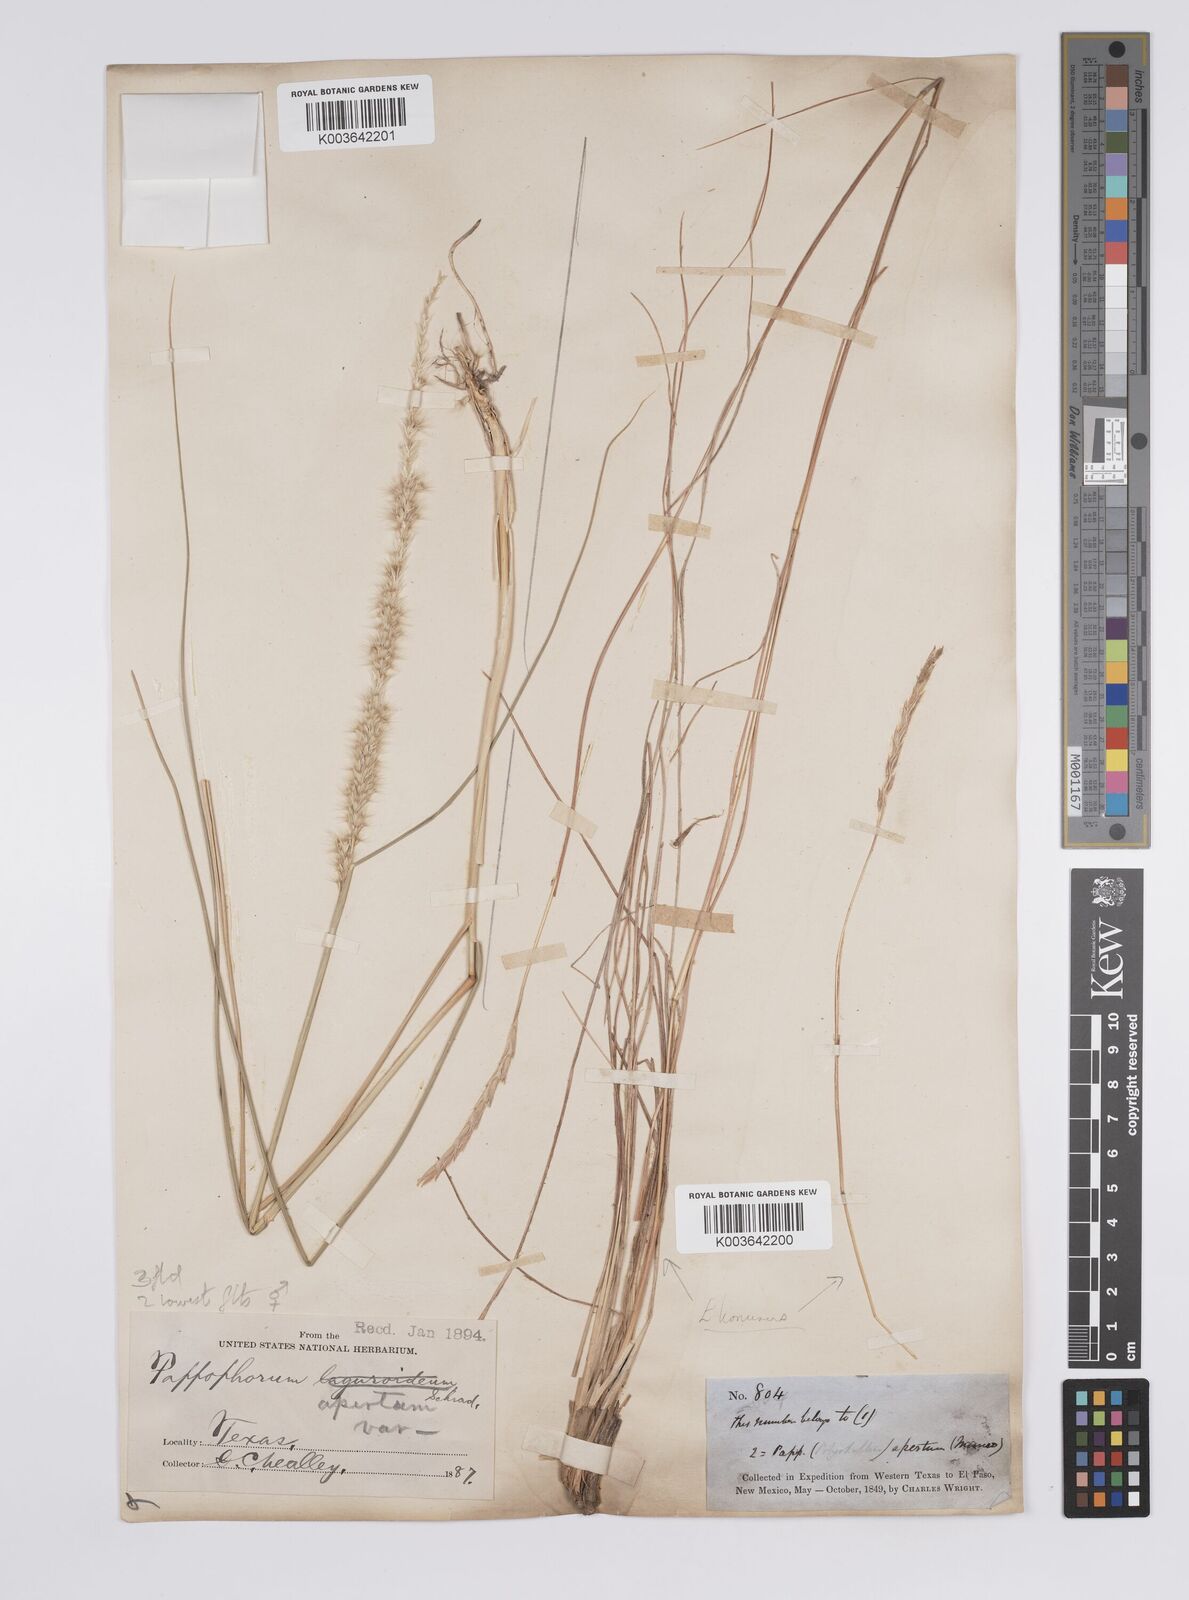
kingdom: Plantae
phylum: Tracheophyta
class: Liliopsida
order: Poales
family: Poaceae
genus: Pappophorum
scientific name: Pappophorum mucronulatum
